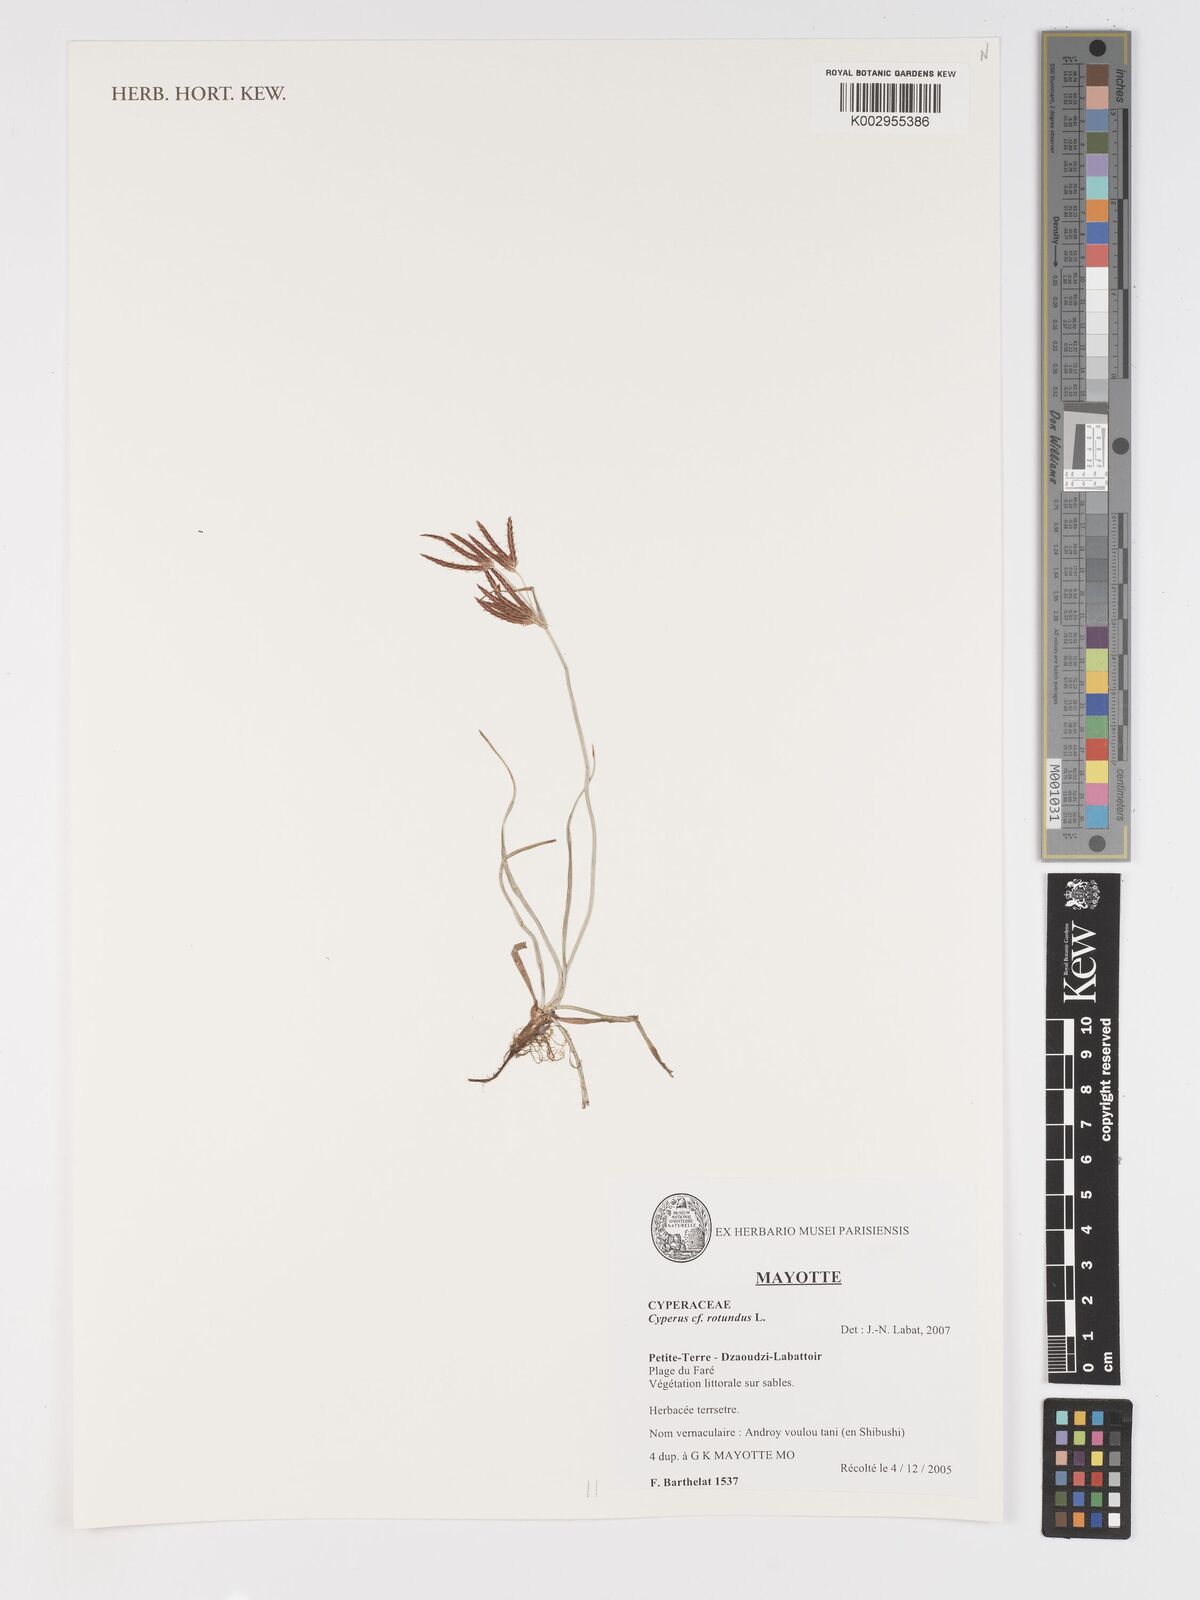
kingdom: Plantae
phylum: Tracheophyta
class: Liliopsida
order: Poales
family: Cyperaceae
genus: Cyperus
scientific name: Cyperus rotundus
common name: Nutgrass
